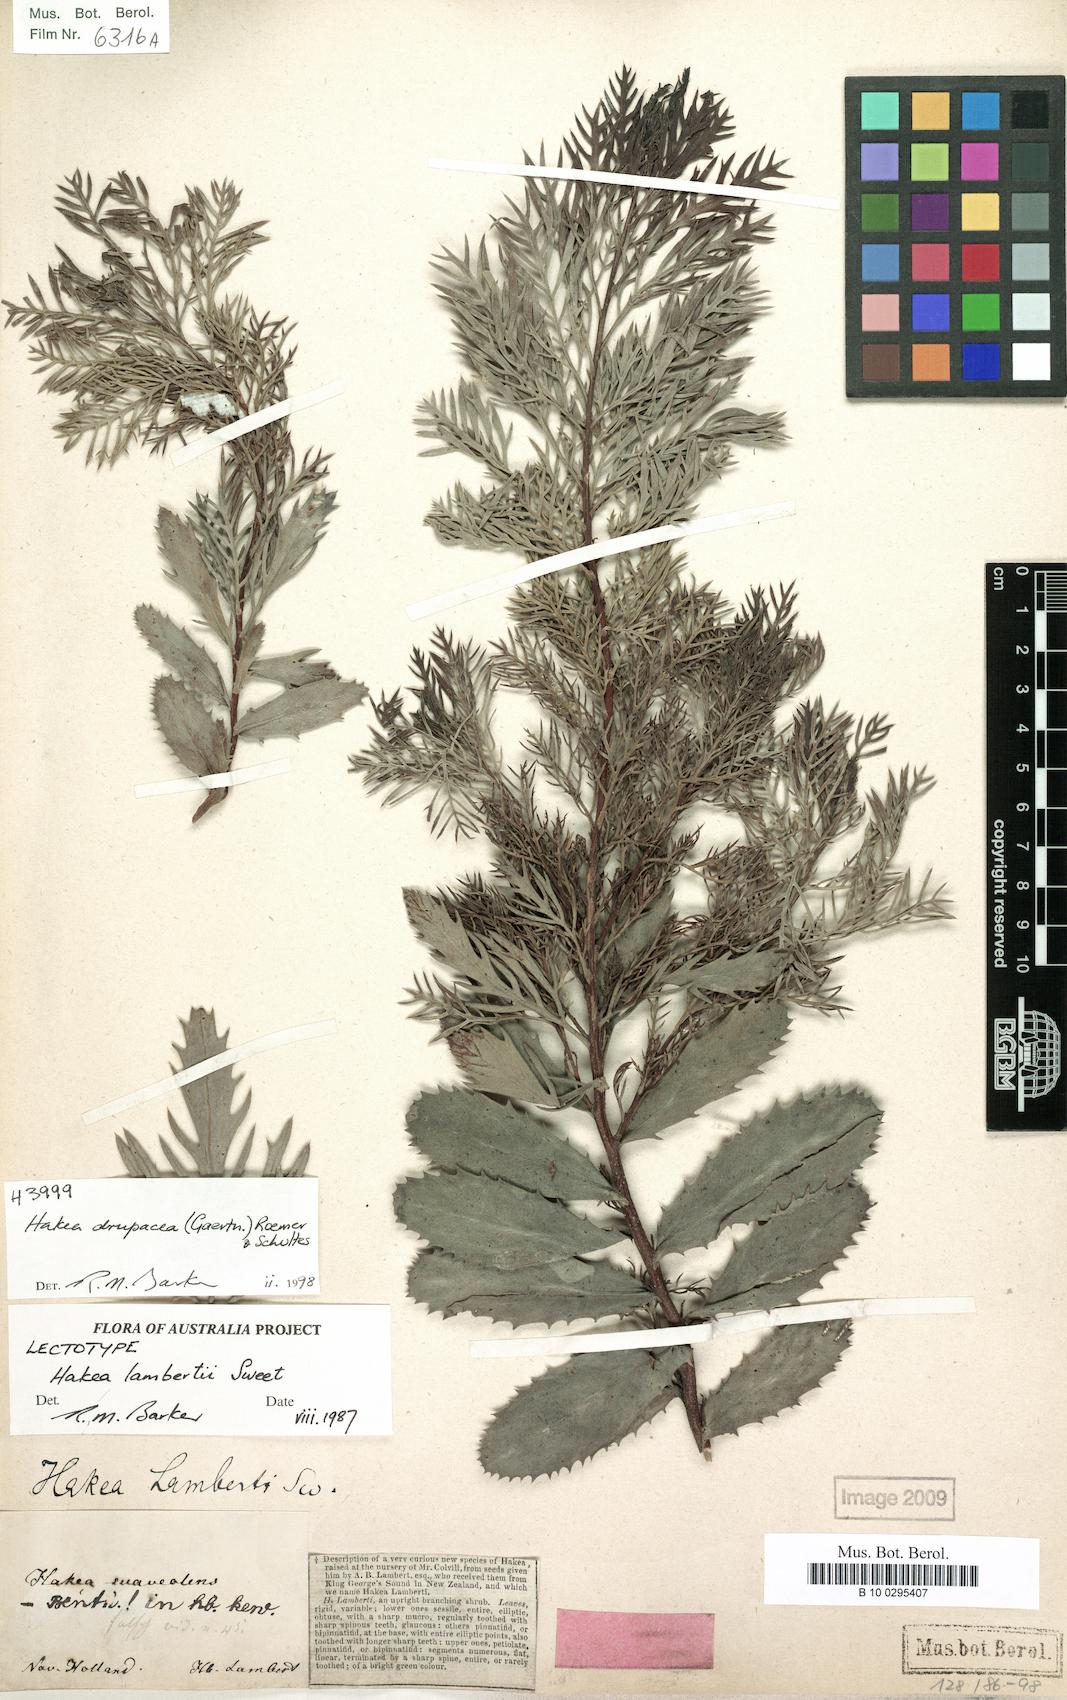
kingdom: Plantae
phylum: Tracheophyta
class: Magnoliopsida
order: Proteales
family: Proteaceae
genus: Hakea
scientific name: Hakea drupacea
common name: Sweet hakea
